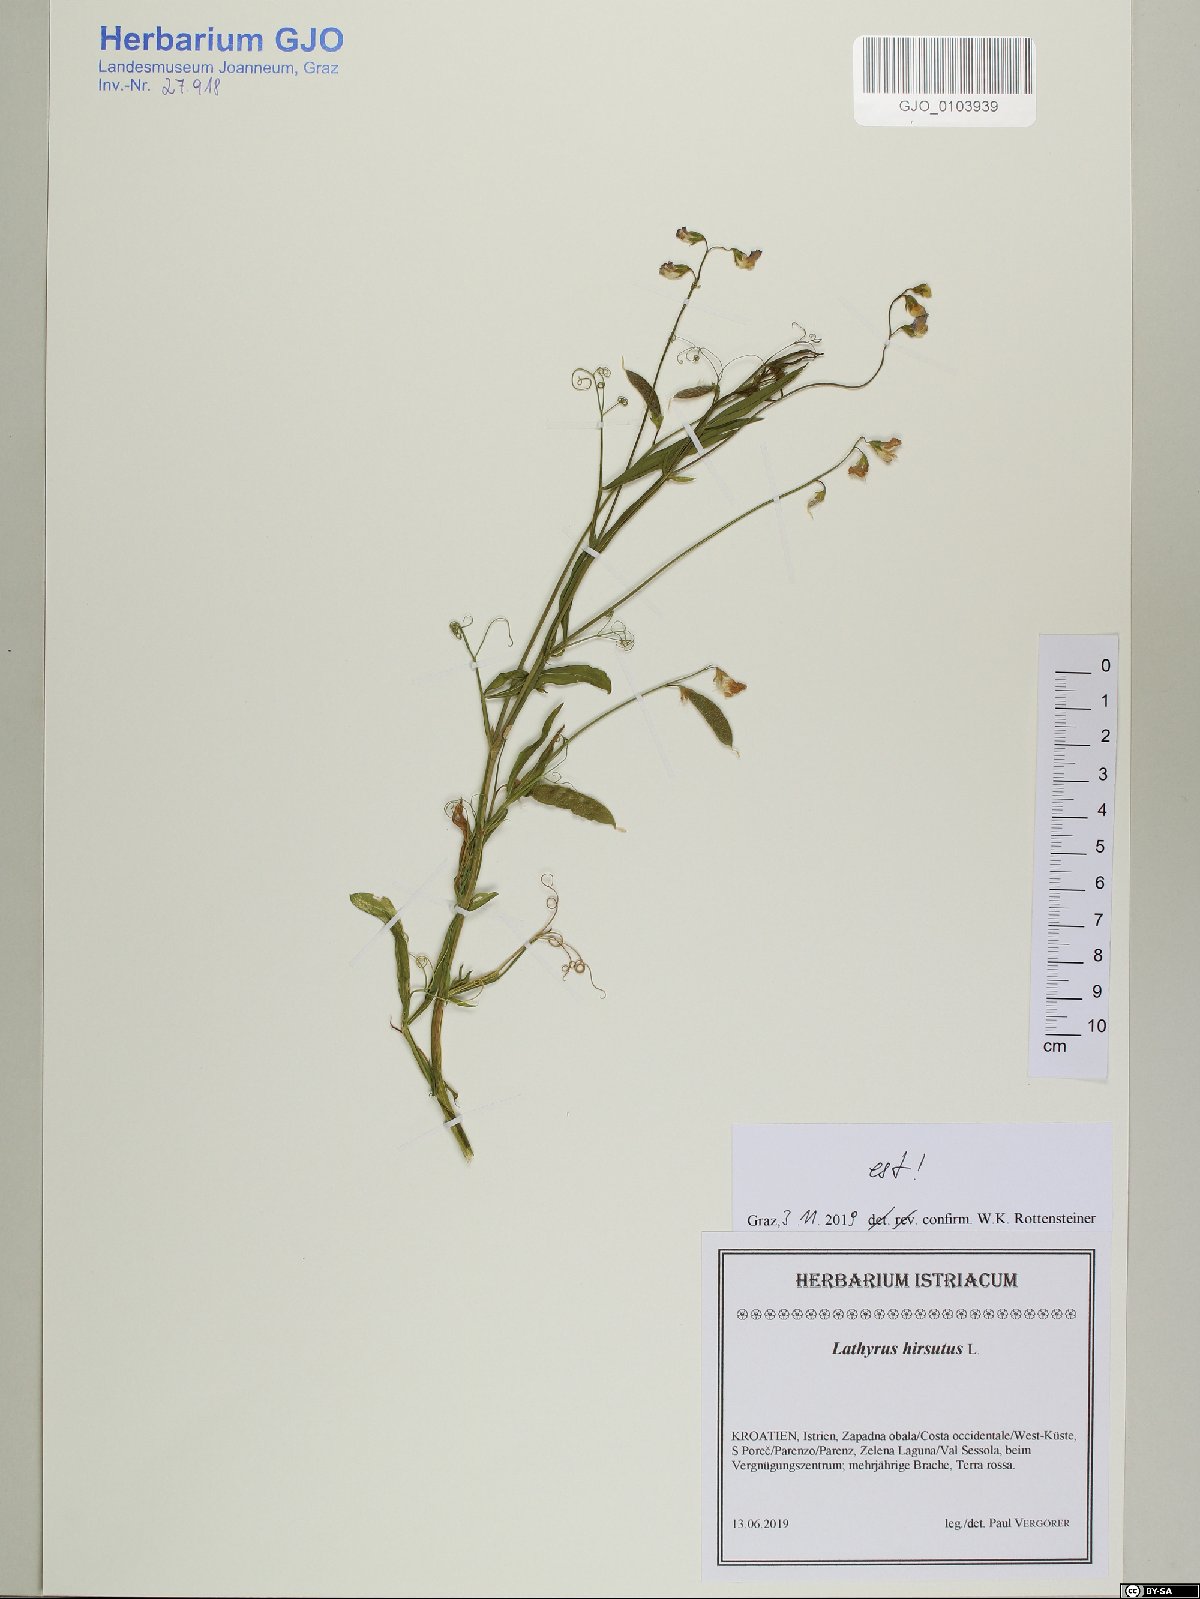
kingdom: Plantae
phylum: Tracheophyta
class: Magnoliopsida
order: Fabales
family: Fabaceae
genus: Lathyrus
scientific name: Lathyrus hirsutus
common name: Hairy vetchling
